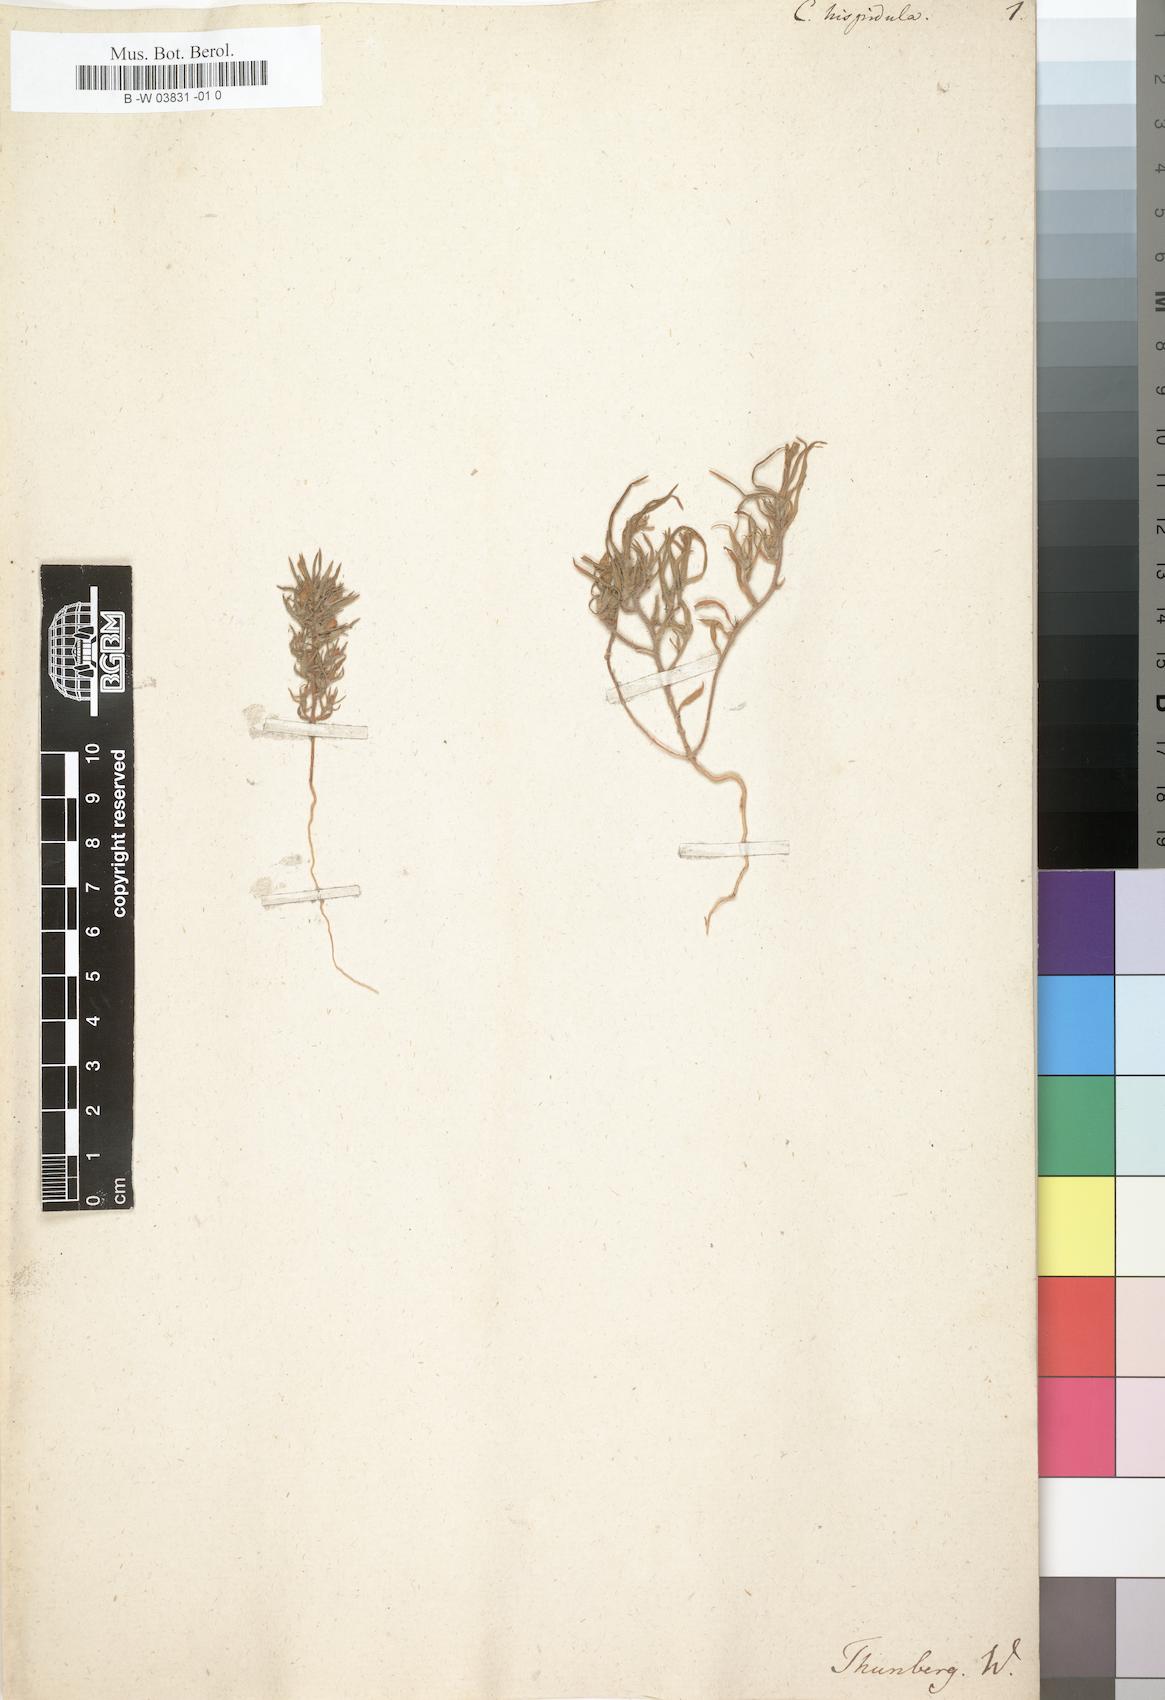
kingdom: Plantae
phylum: Tracheophyta
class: Magnoliopsida
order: Asterales
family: Campanulaceae
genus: Campanula
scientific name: Campanula hispidula
